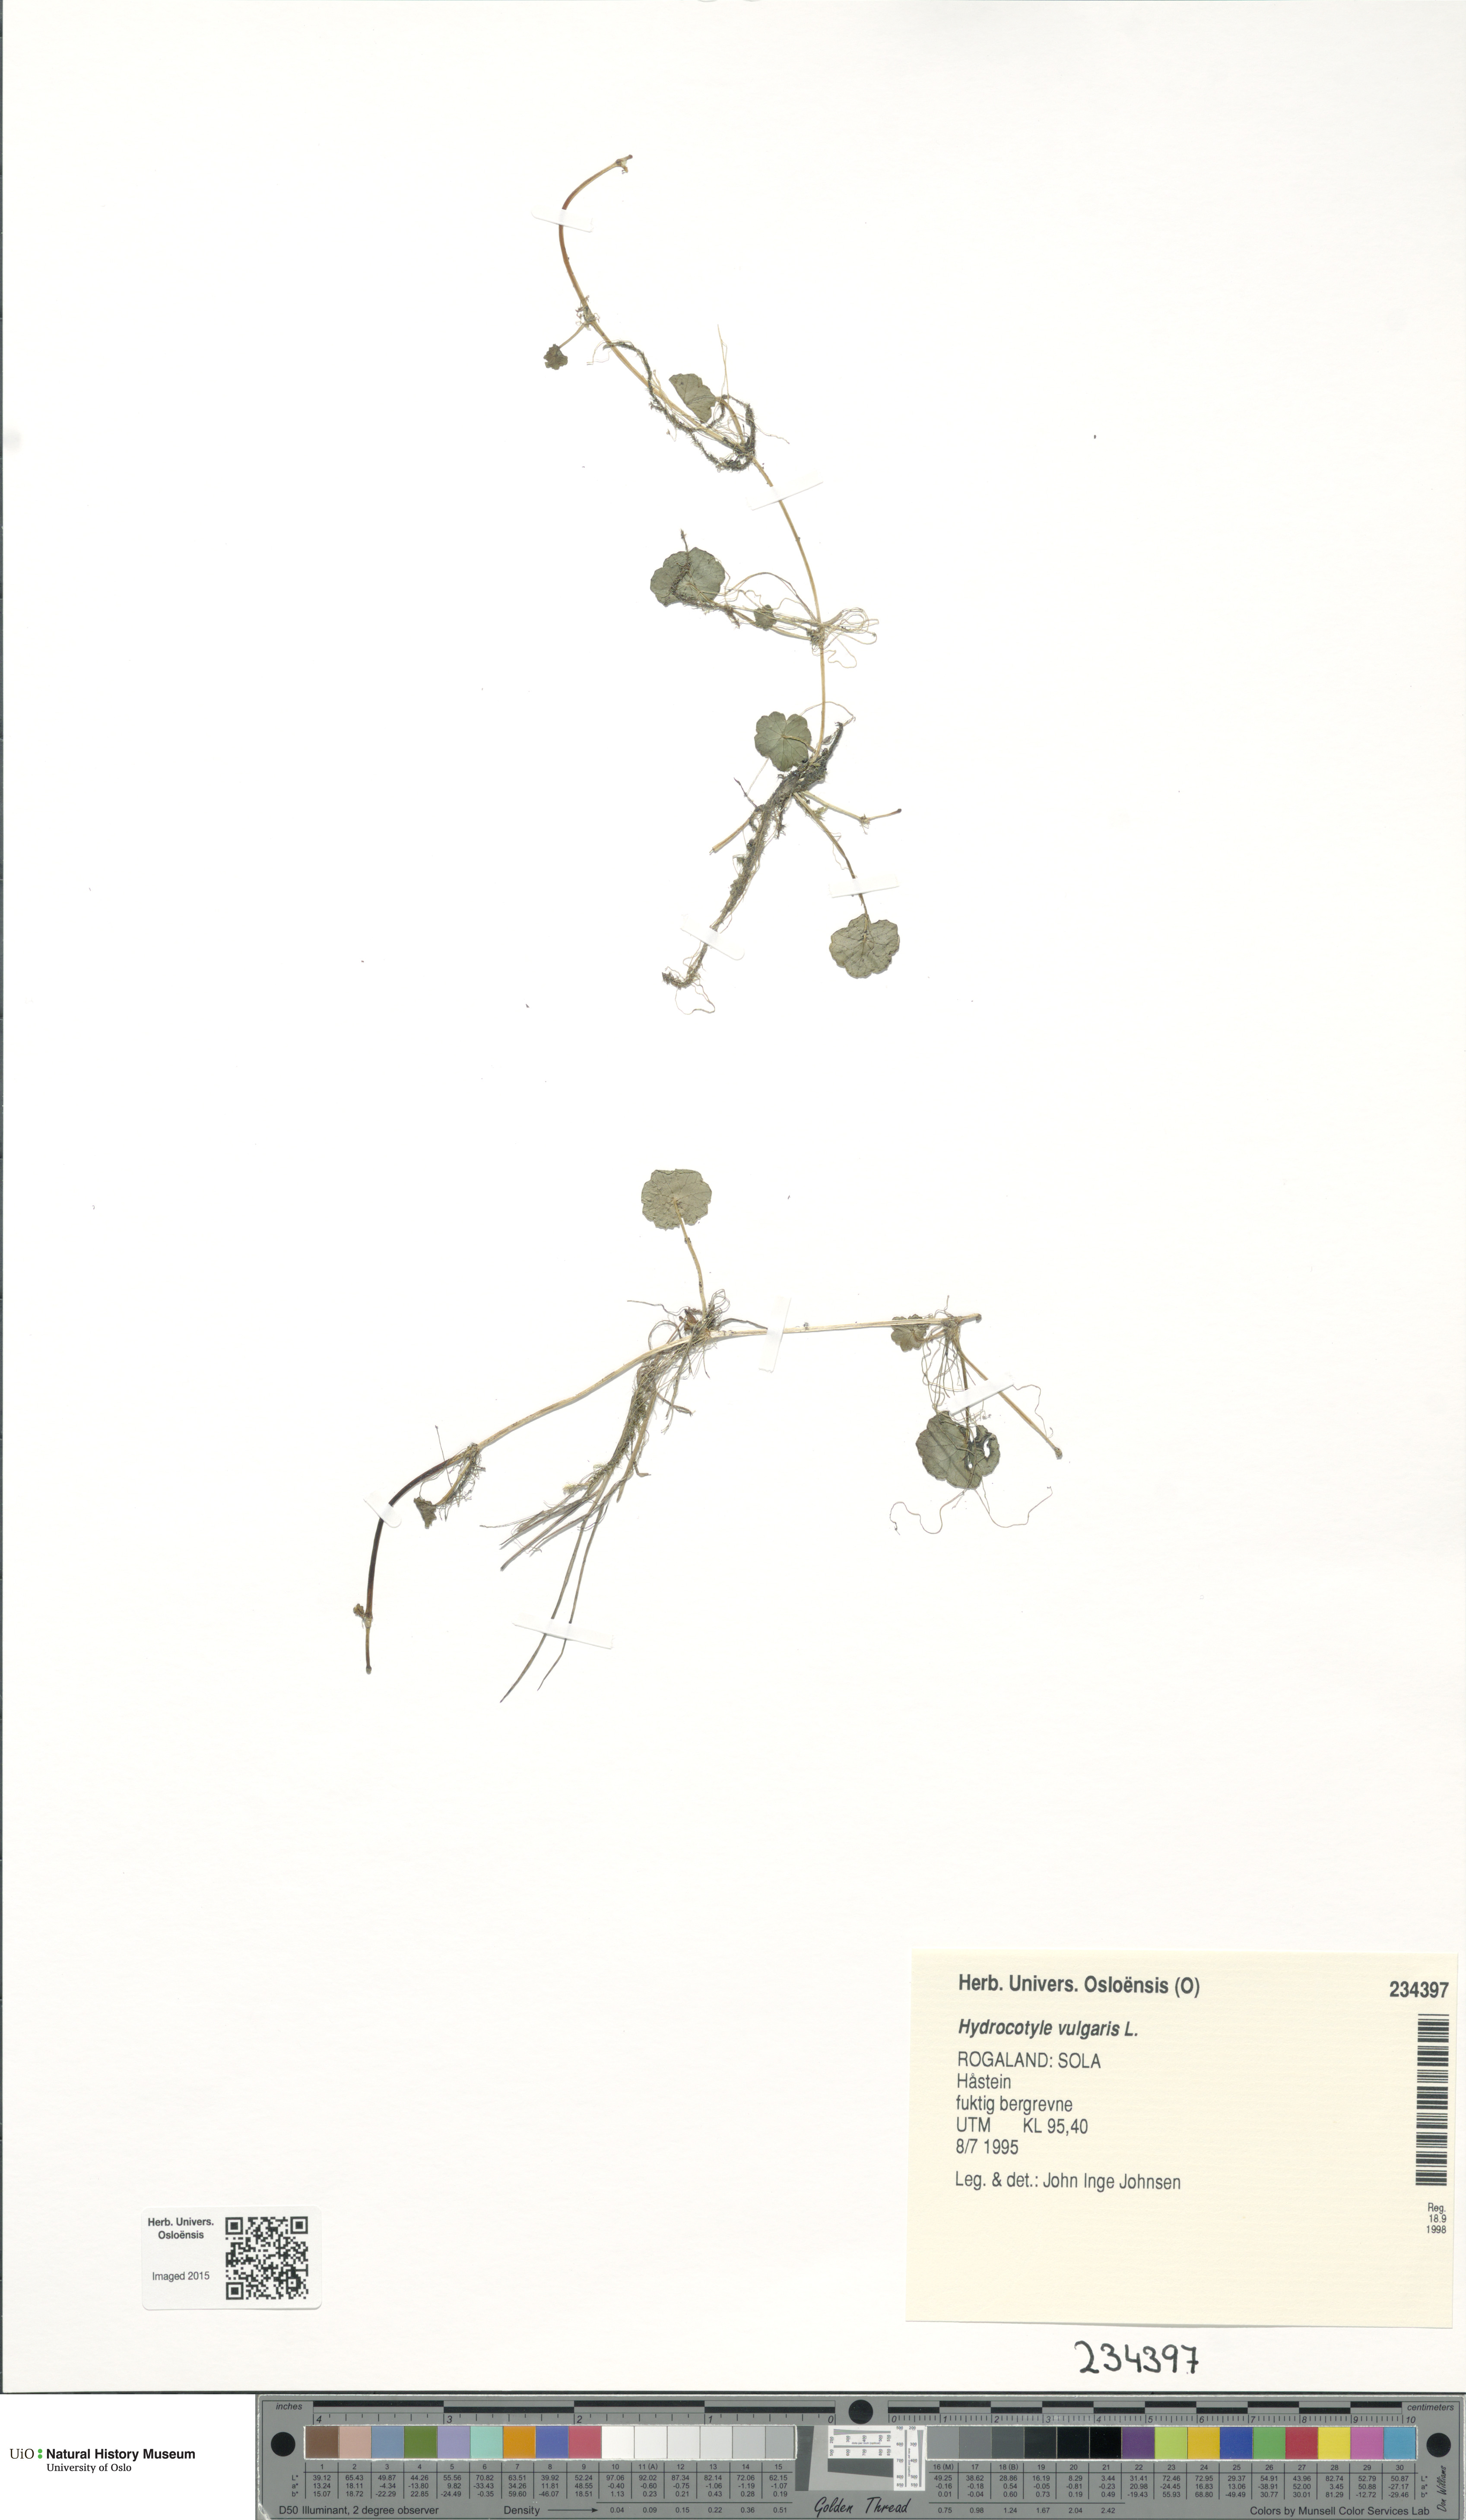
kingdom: Plantae
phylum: Tracheophyta
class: Magnoliopsida
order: Apiales
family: Araliaceae
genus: Hydrocotyle
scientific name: Hydrocotyle vulgaris
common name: Marsh pennywort
